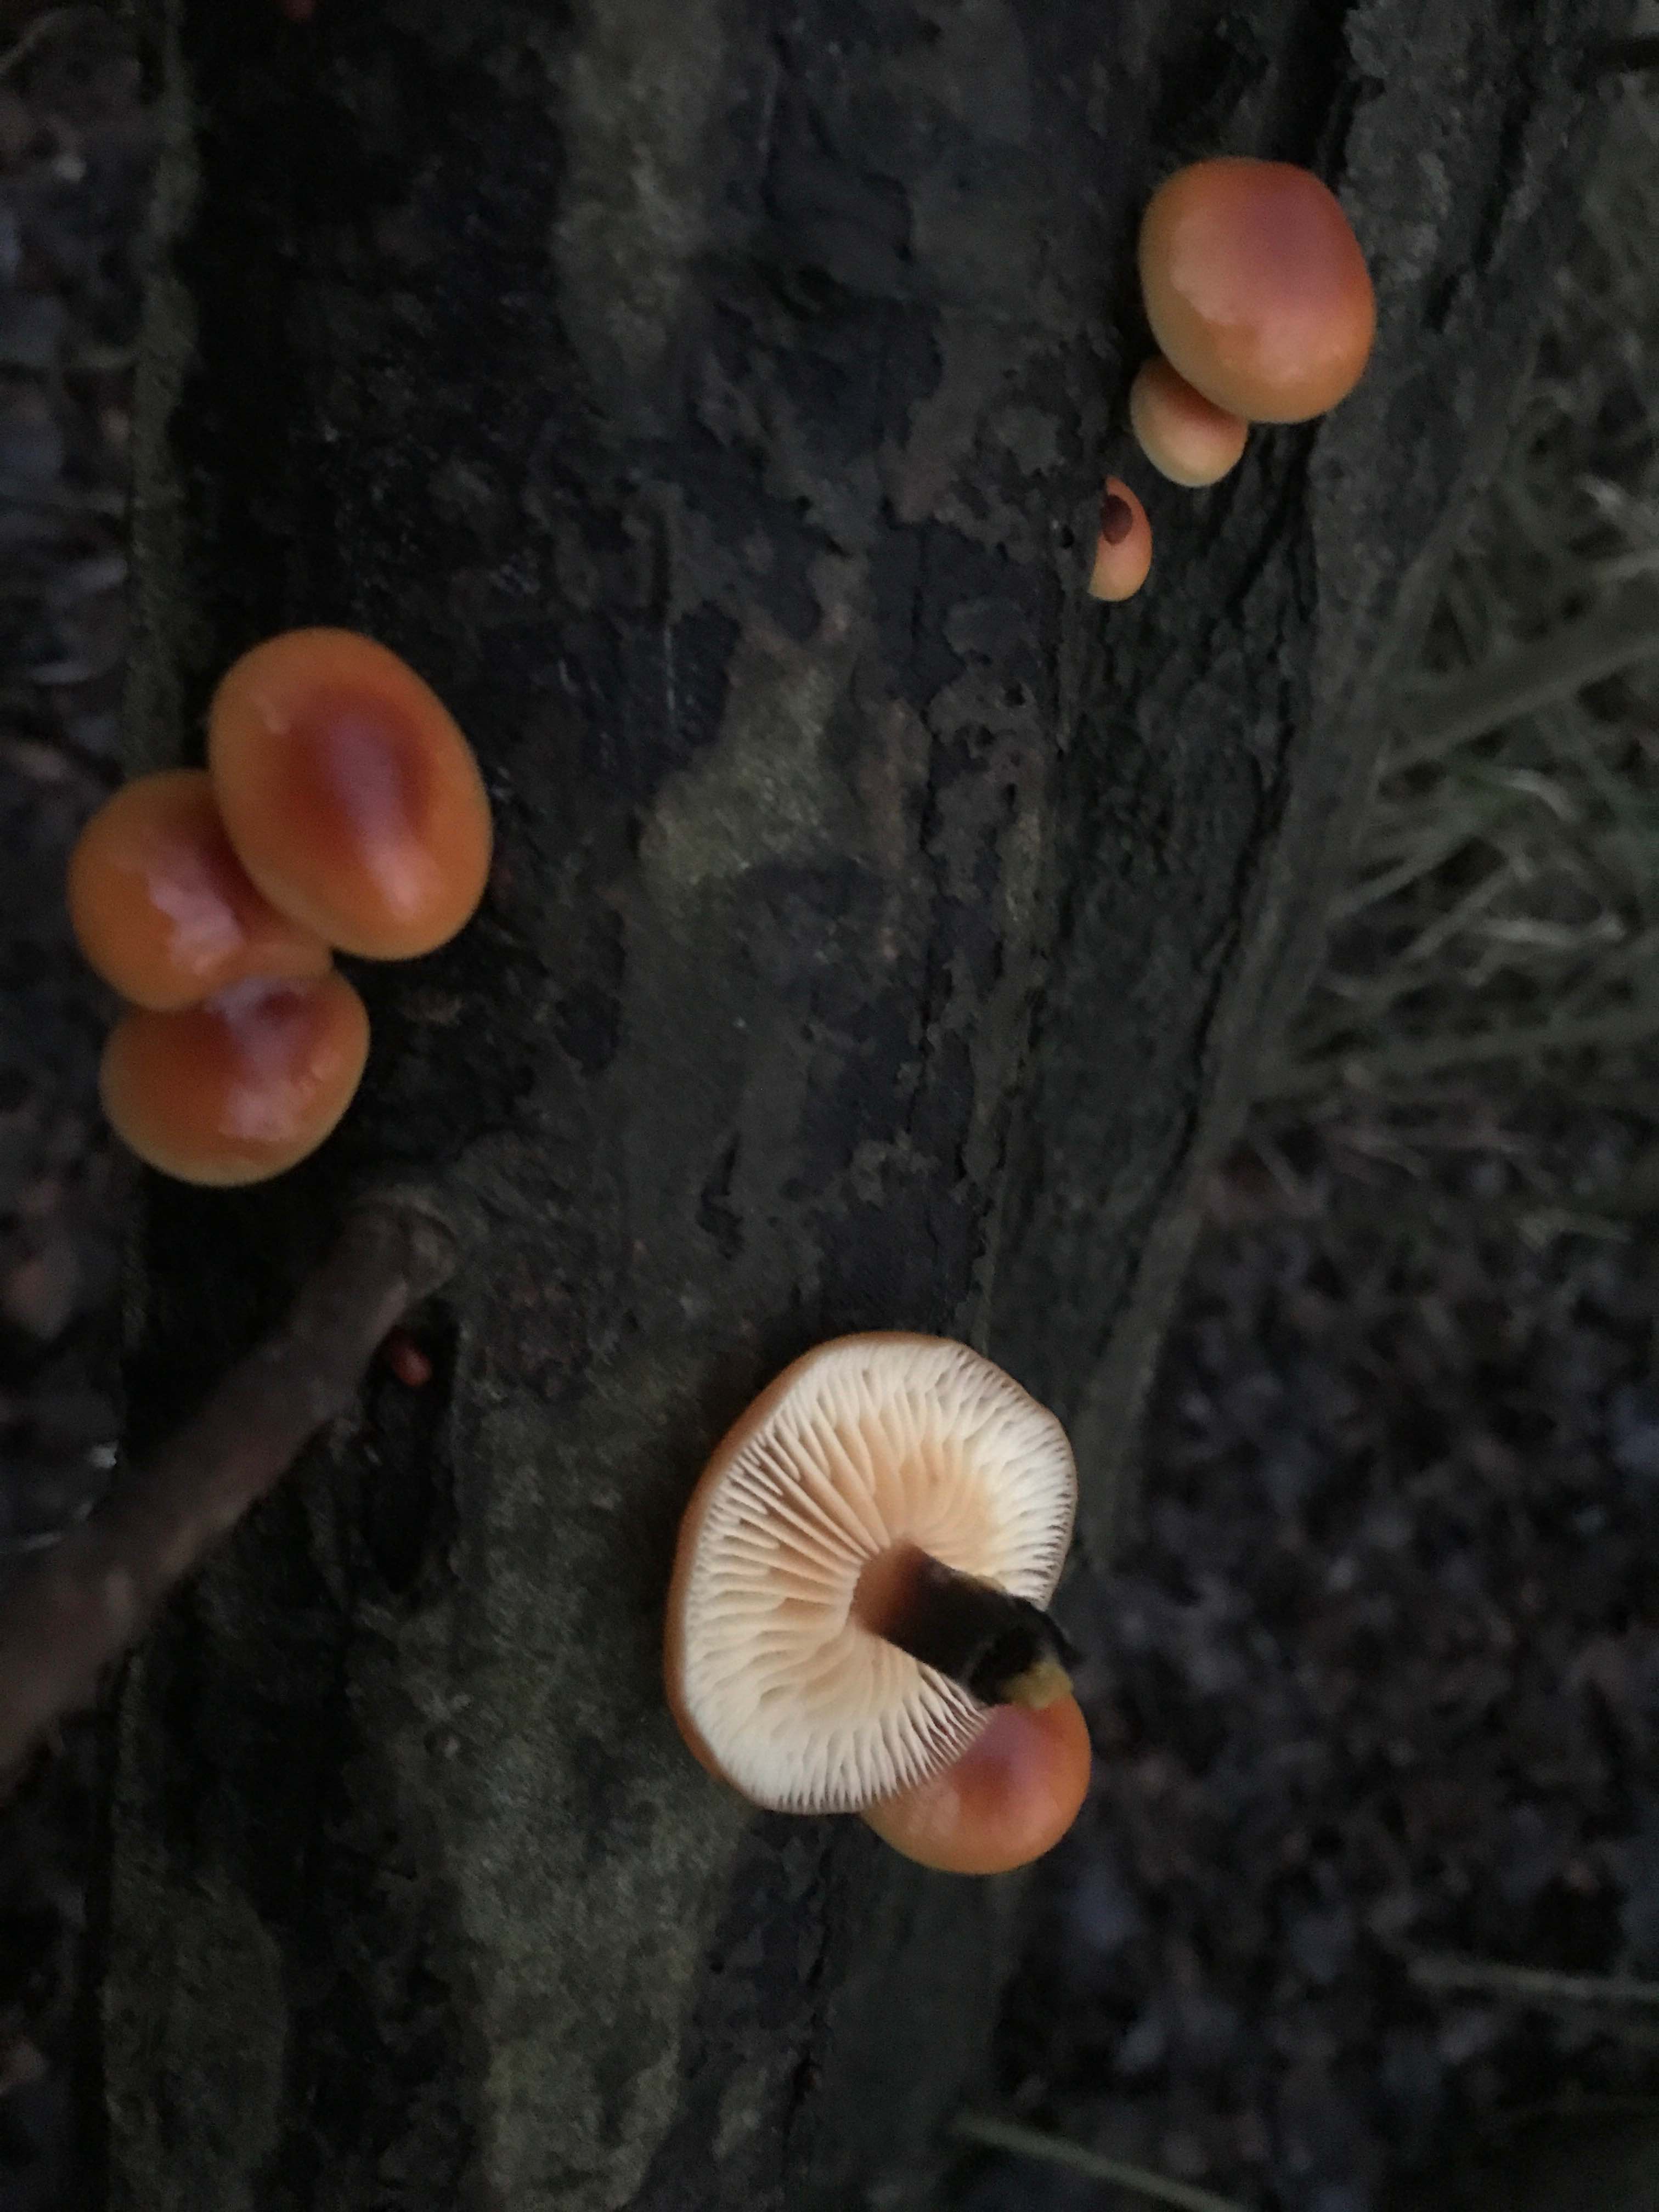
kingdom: Fungi
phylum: Basidiomycota
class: Agaricomycetes
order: Agaricales
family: Physalacriaceae
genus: Flammulina
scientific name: Flammulina
